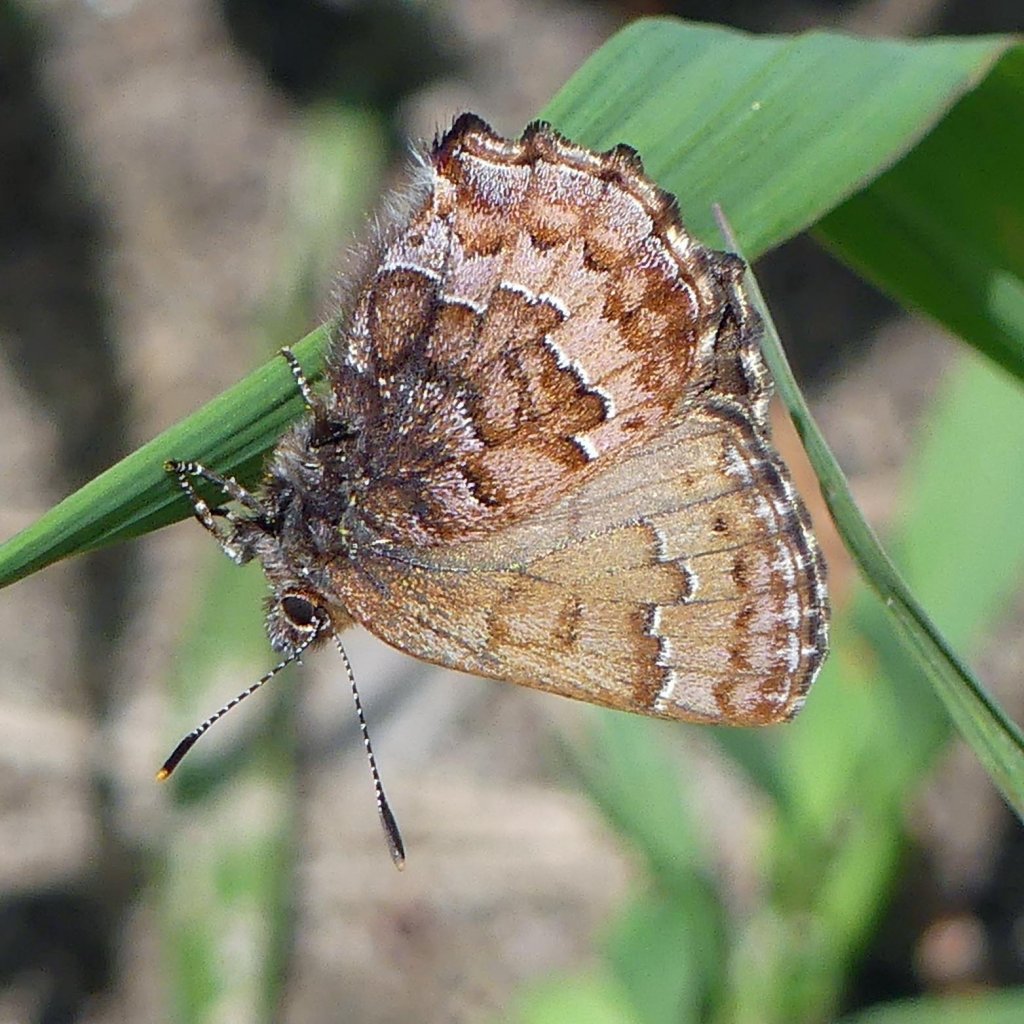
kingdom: Animalia
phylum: Arthropoda
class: Insecta
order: Lepidoptera
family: Lycaenidae
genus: Incisalia
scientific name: Incisalia niphon
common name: Eastern Pine Elfin
